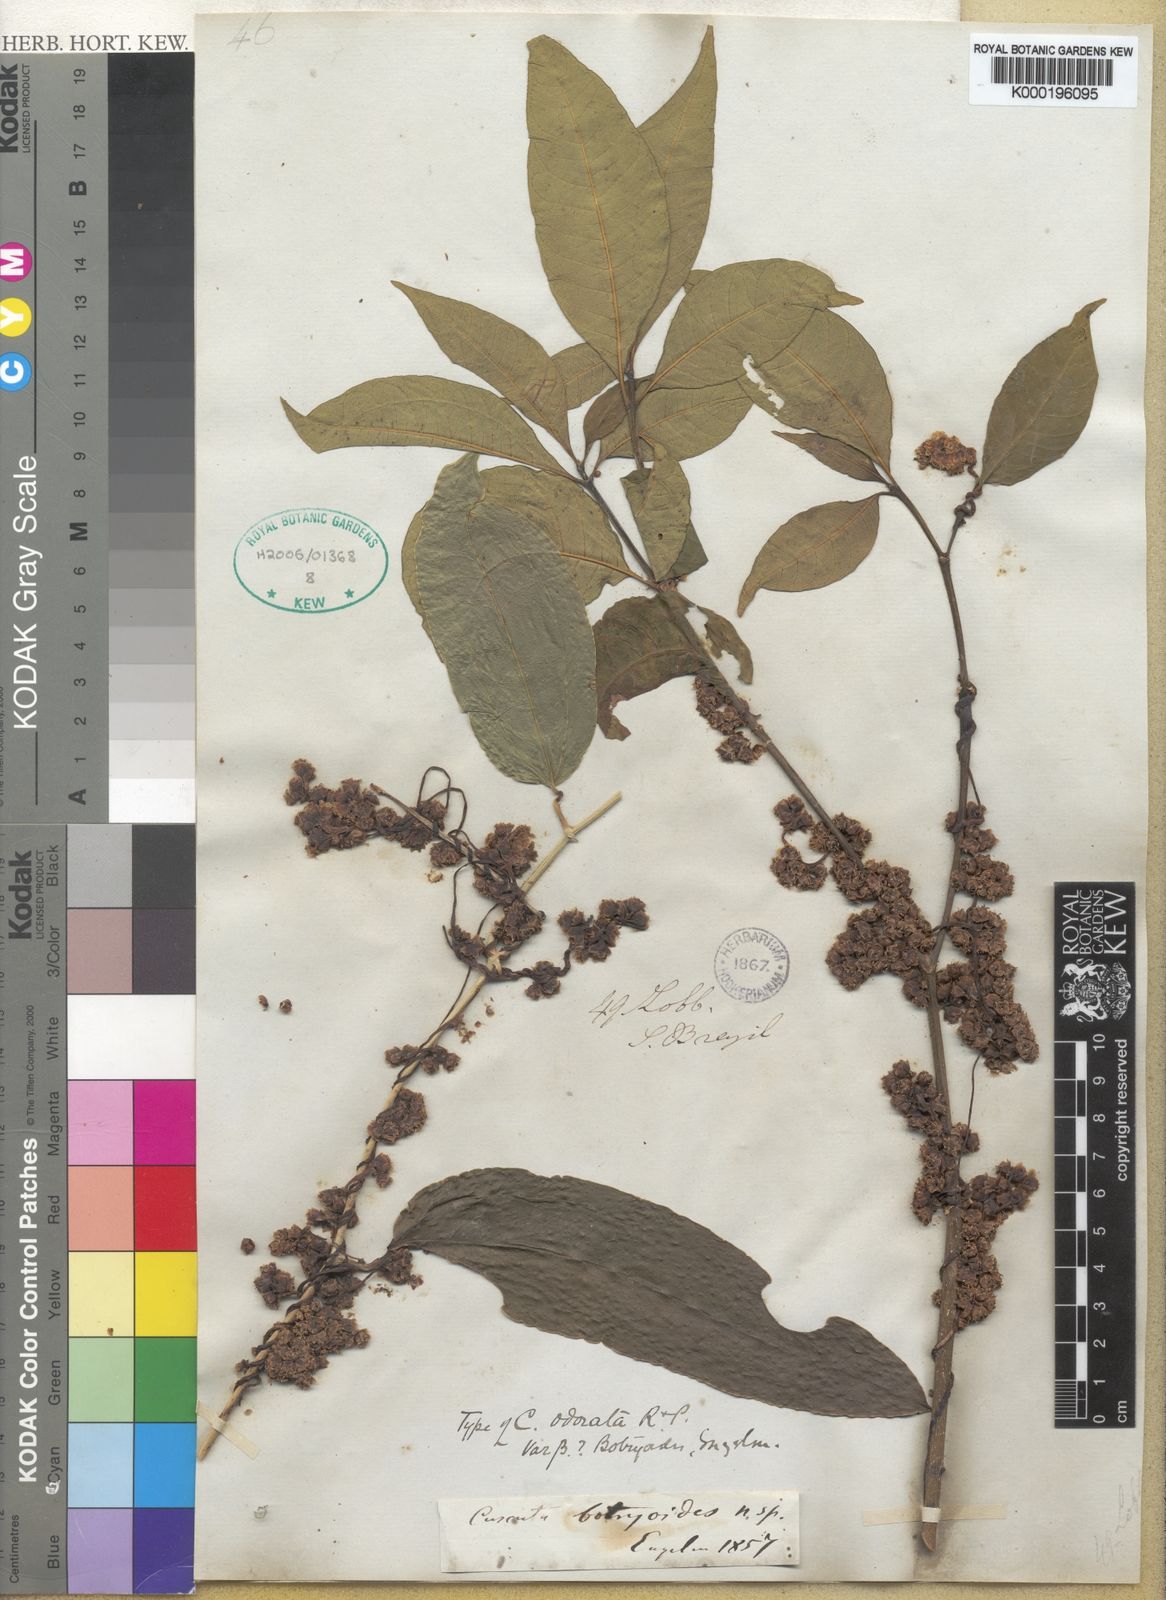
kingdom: Plantae
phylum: Tracheophyta
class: Magnoliopsida
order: Solanales
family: Convolvulaceae
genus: Cuscuta
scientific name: Cuscuta odorata
